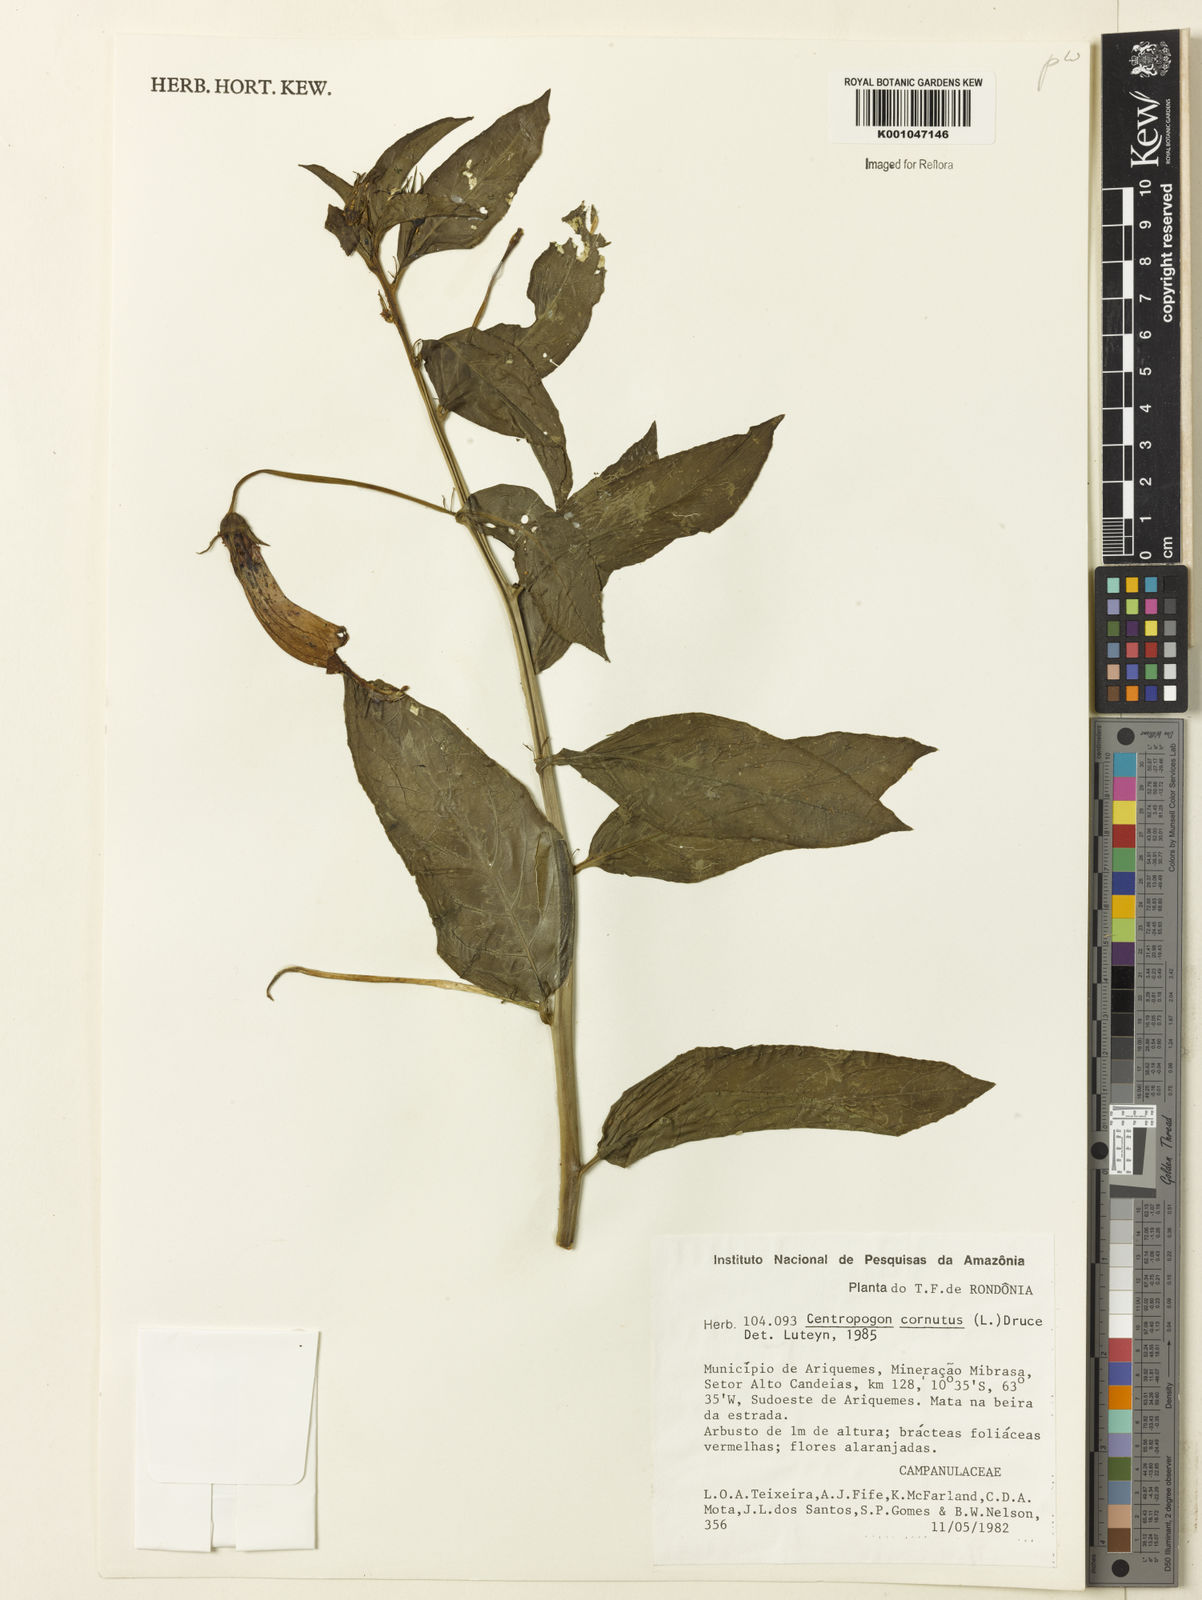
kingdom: Plantae
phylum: Tracheophyta
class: Magnoliopsida
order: Asterales
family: Campanulaceae
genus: Centropogon
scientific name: Centropogon cornutus
